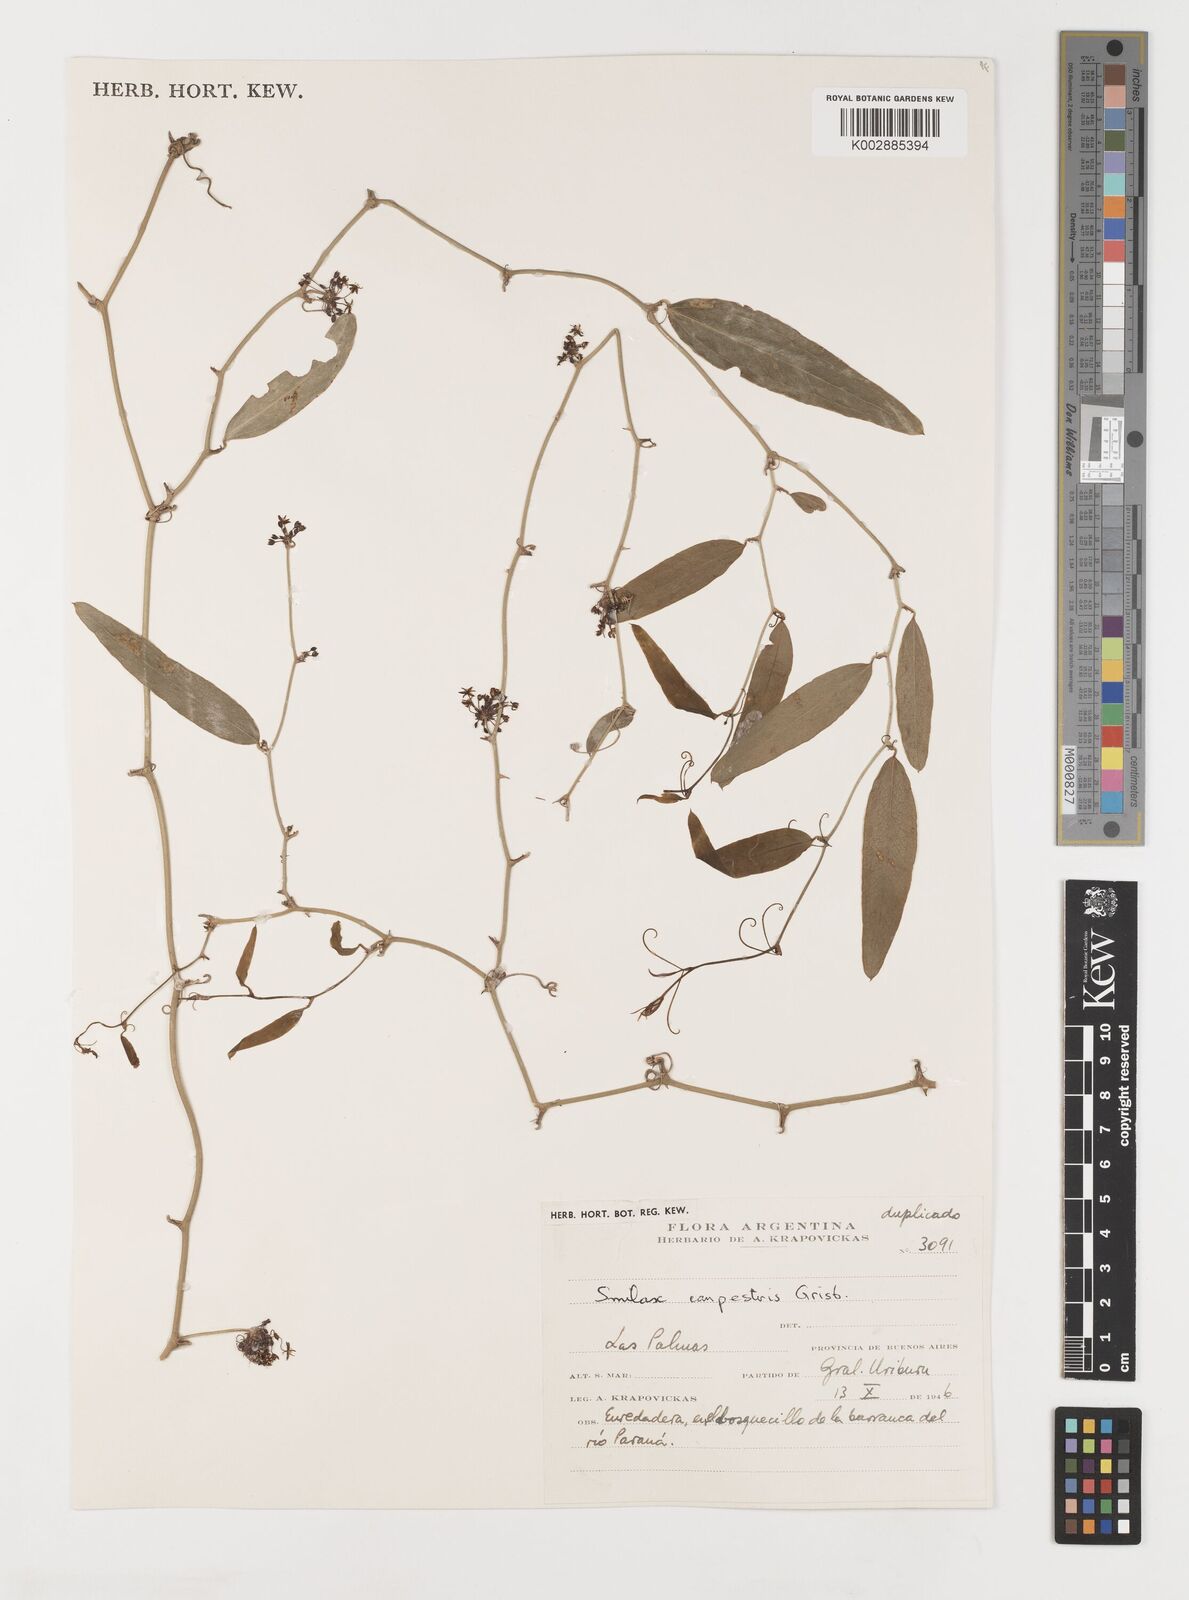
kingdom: Plantae
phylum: Tracheophyta
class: Liliopsida
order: Liliales
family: Smilacaceae
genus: Smilax
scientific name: Smilax campestris
